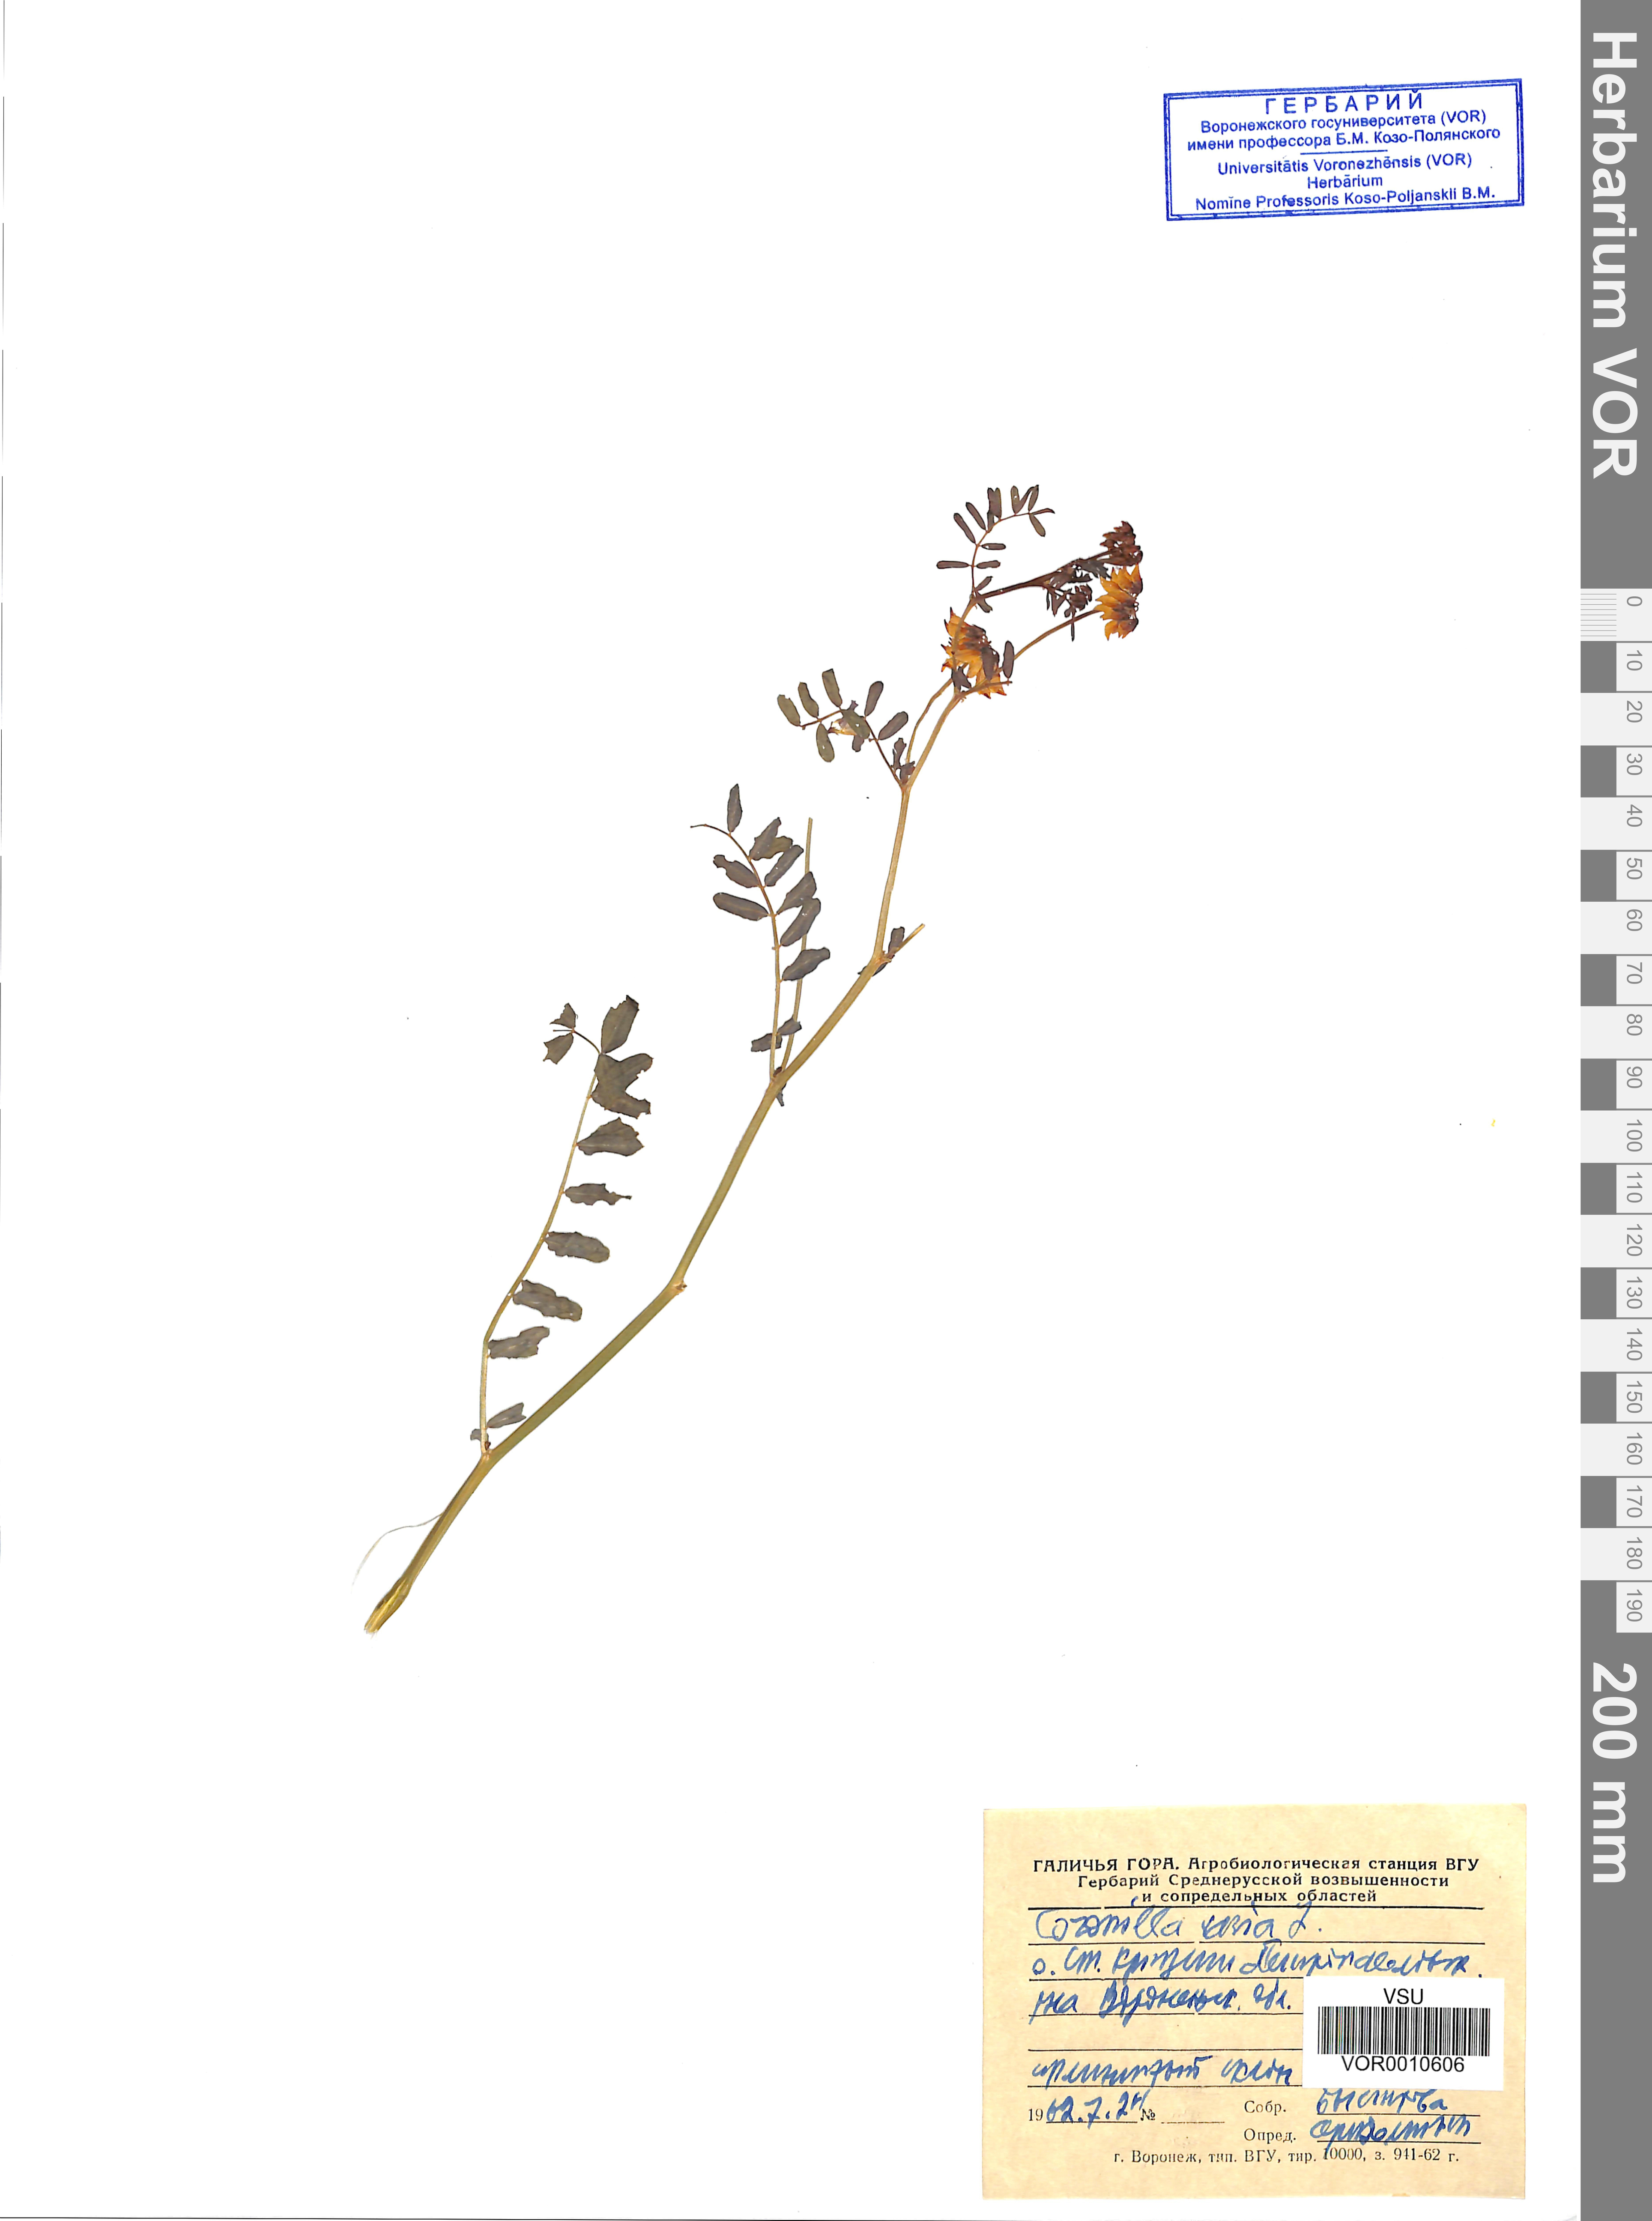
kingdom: Plantae
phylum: Tracheophyta
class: Magnoliopsida
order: Fabales
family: Fabaceae
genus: Coronilla
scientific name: Coronilla varia
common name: Crownvetch
